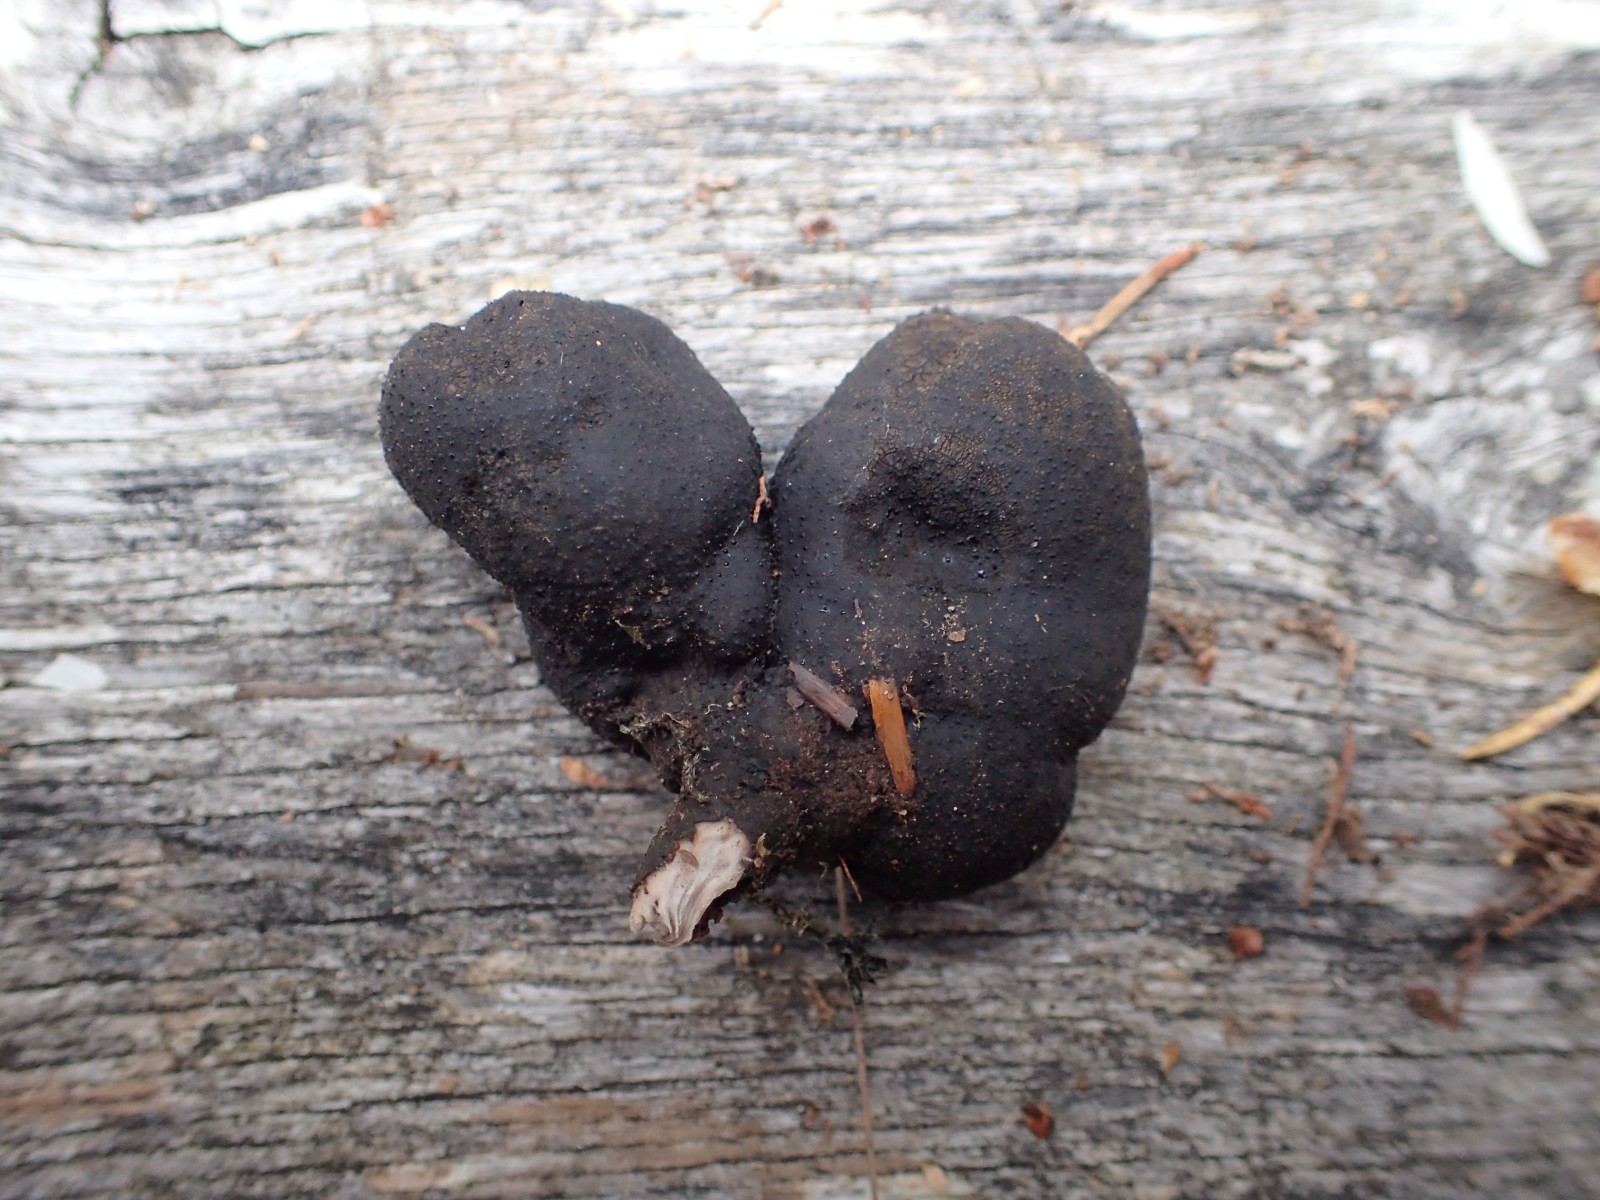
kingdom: Fungi
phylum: Ascomycota
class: Sordariomycetes
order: Xylariales
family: Xylariaceae
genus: Xylaria
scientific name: Xylaria polymorpha
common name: kølle-stødsvamp
